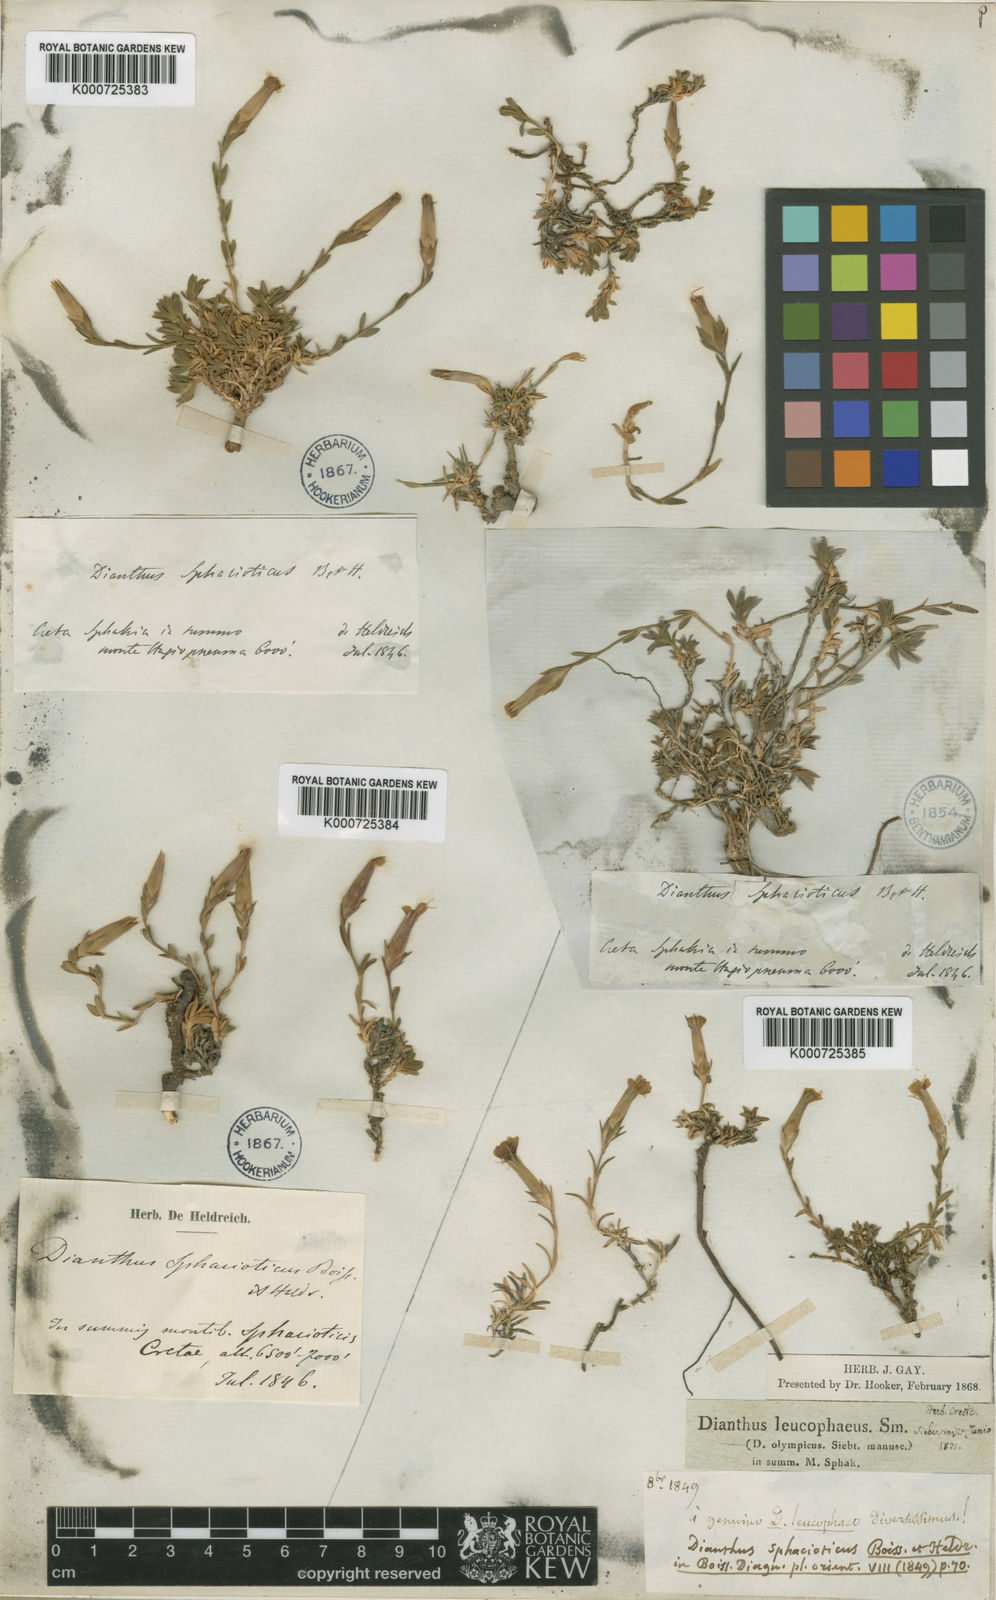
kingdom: Plantae
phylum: Tracheophyta
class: Magnoliopsida
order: Caryophyllales
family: Caryophyllaceae
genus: Dianthus
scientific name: Dianthus sphacioticus
